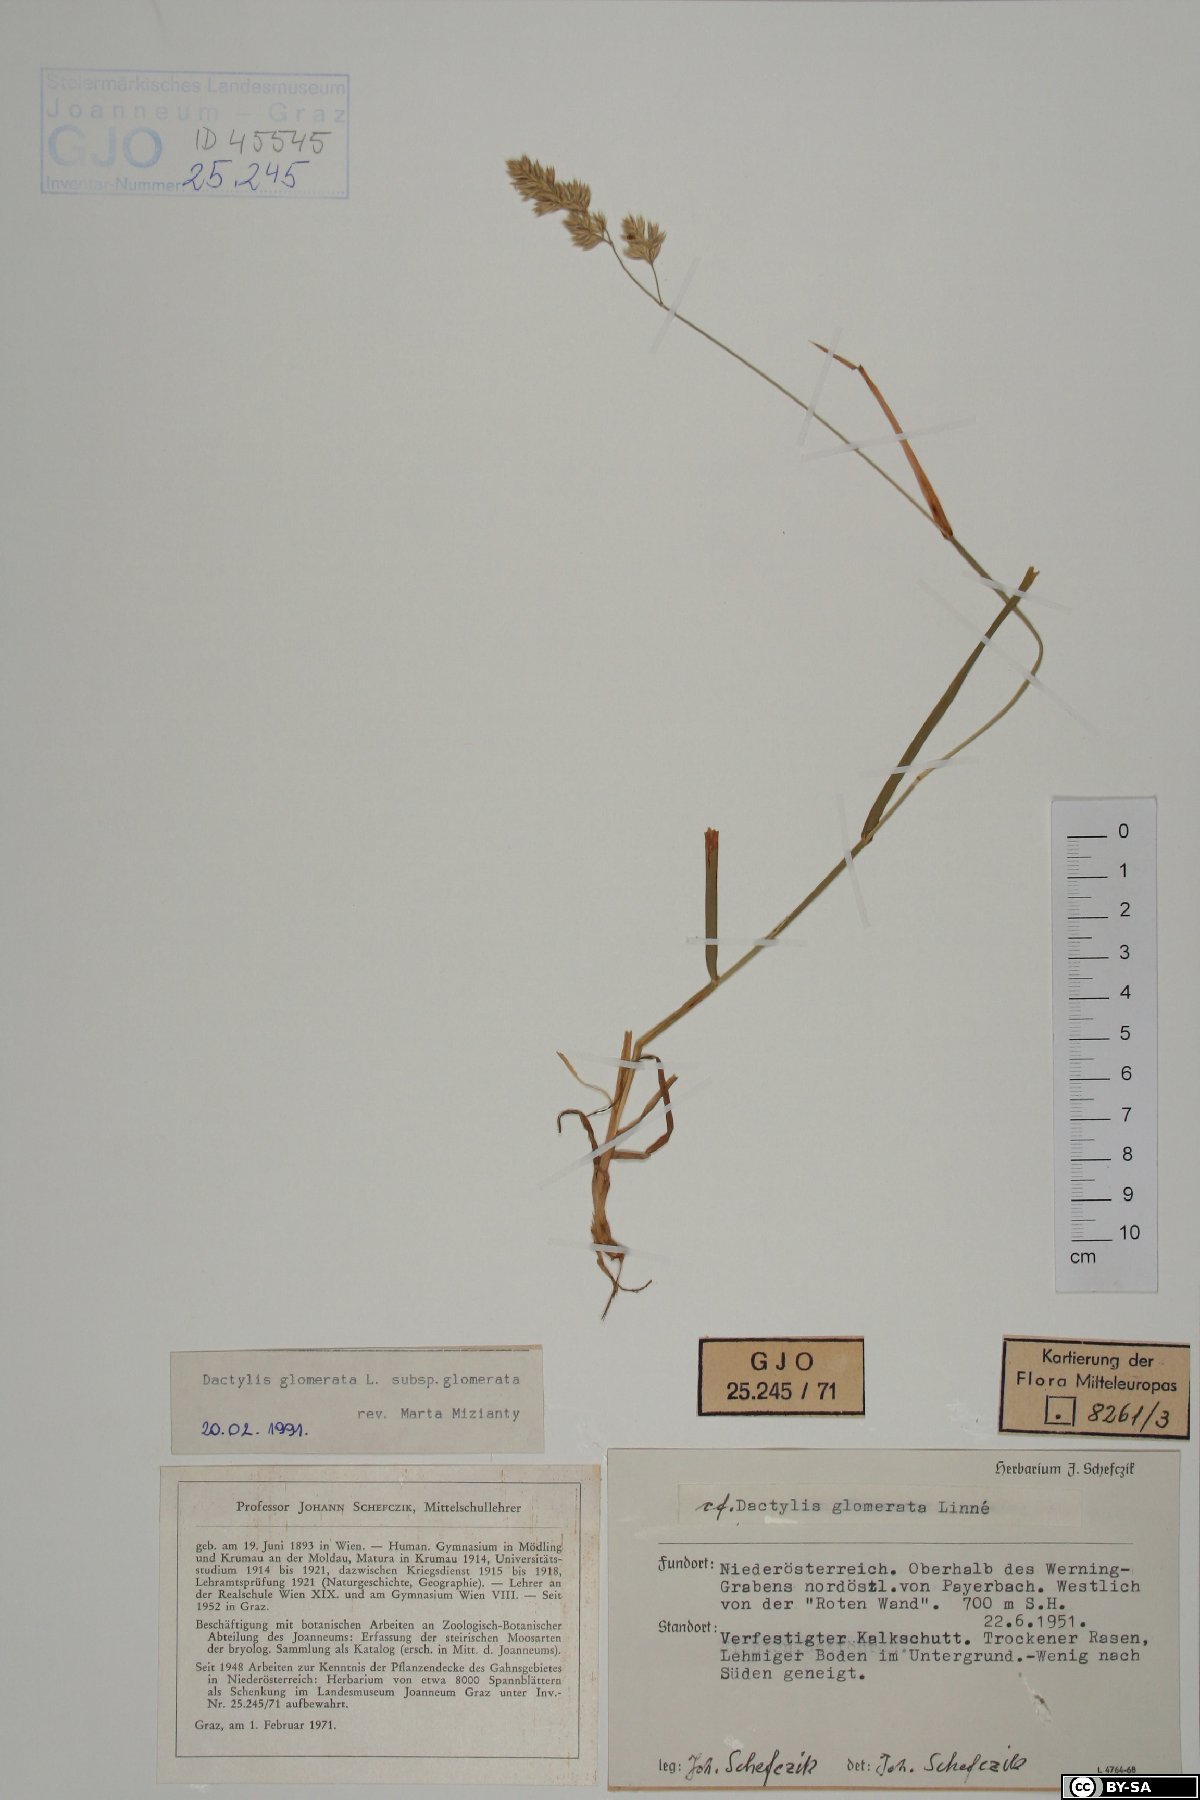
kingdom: Plantae
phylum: Tracheophyta
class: Liliopsida
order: Poales
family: Poaceae
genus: Dactylis
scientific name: Dactylis glomerata
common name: Orchardgrass
